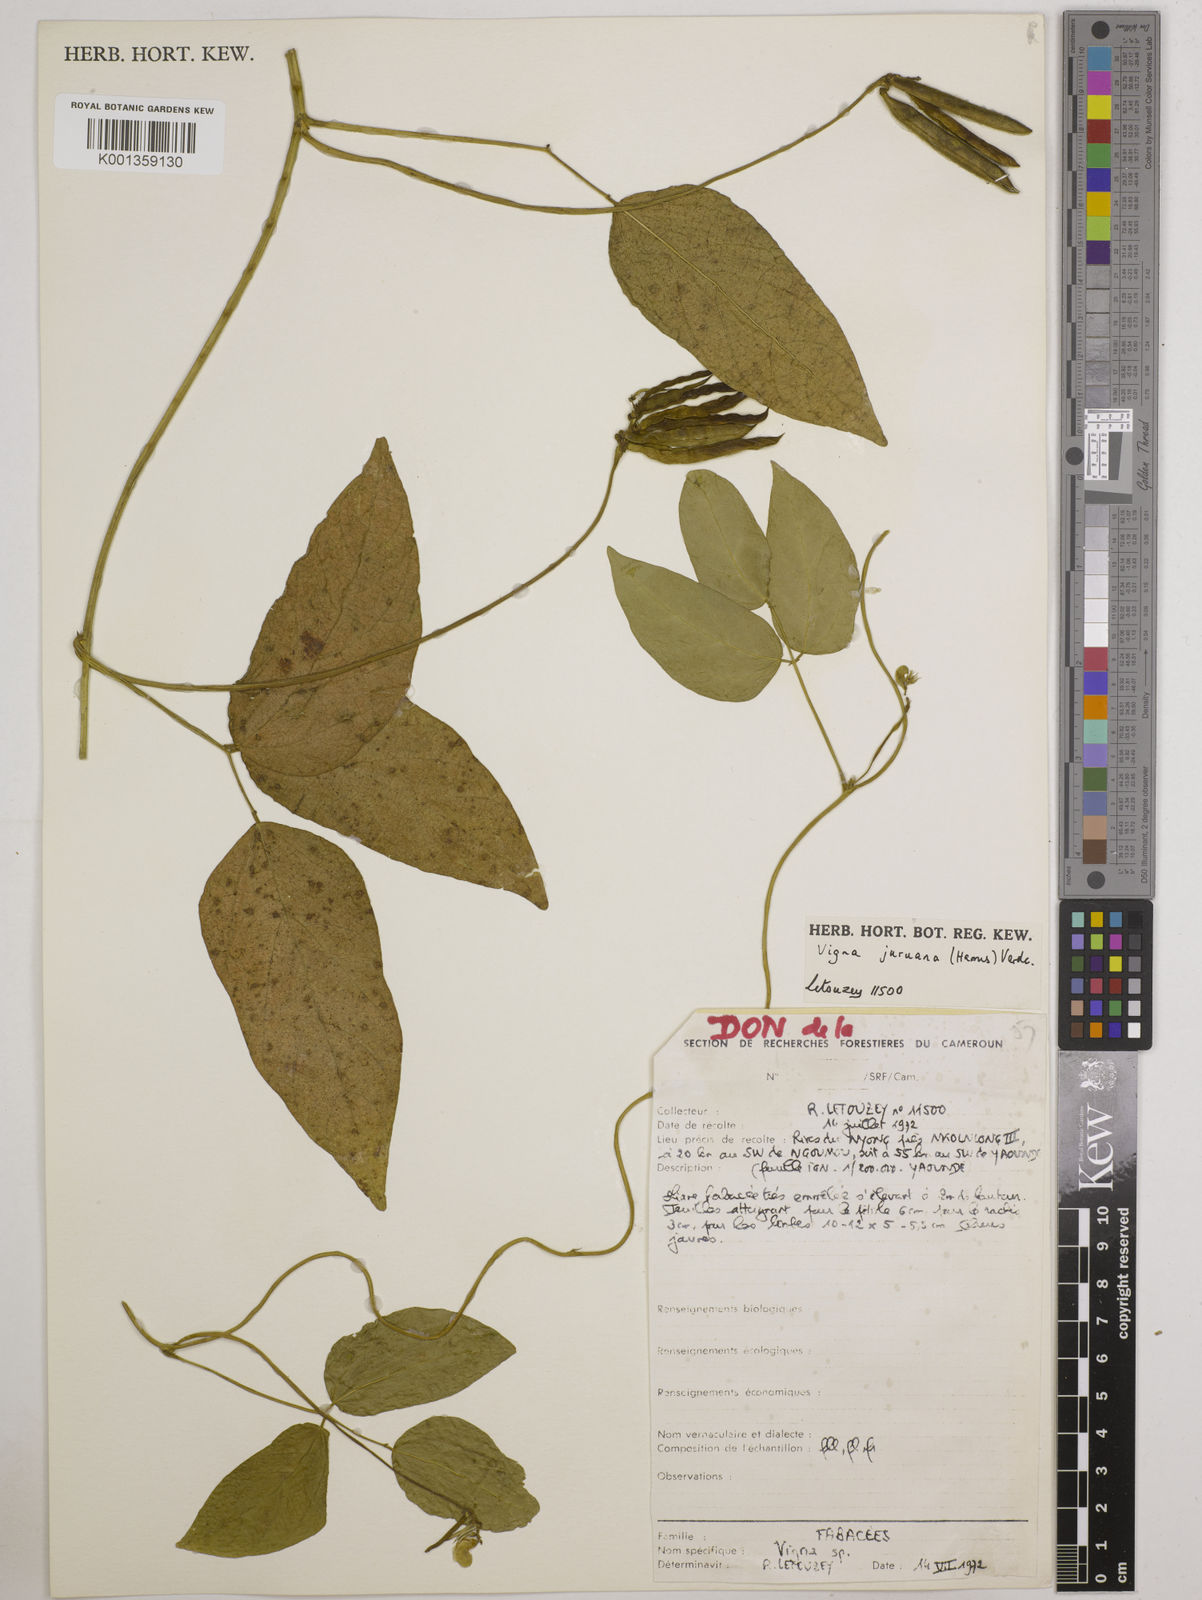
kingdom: Plantae
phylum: Tracheophyta
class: Magnoliopsida
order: Fabales
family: Fabaceae
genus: Vigna
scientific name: Vigna juruana
